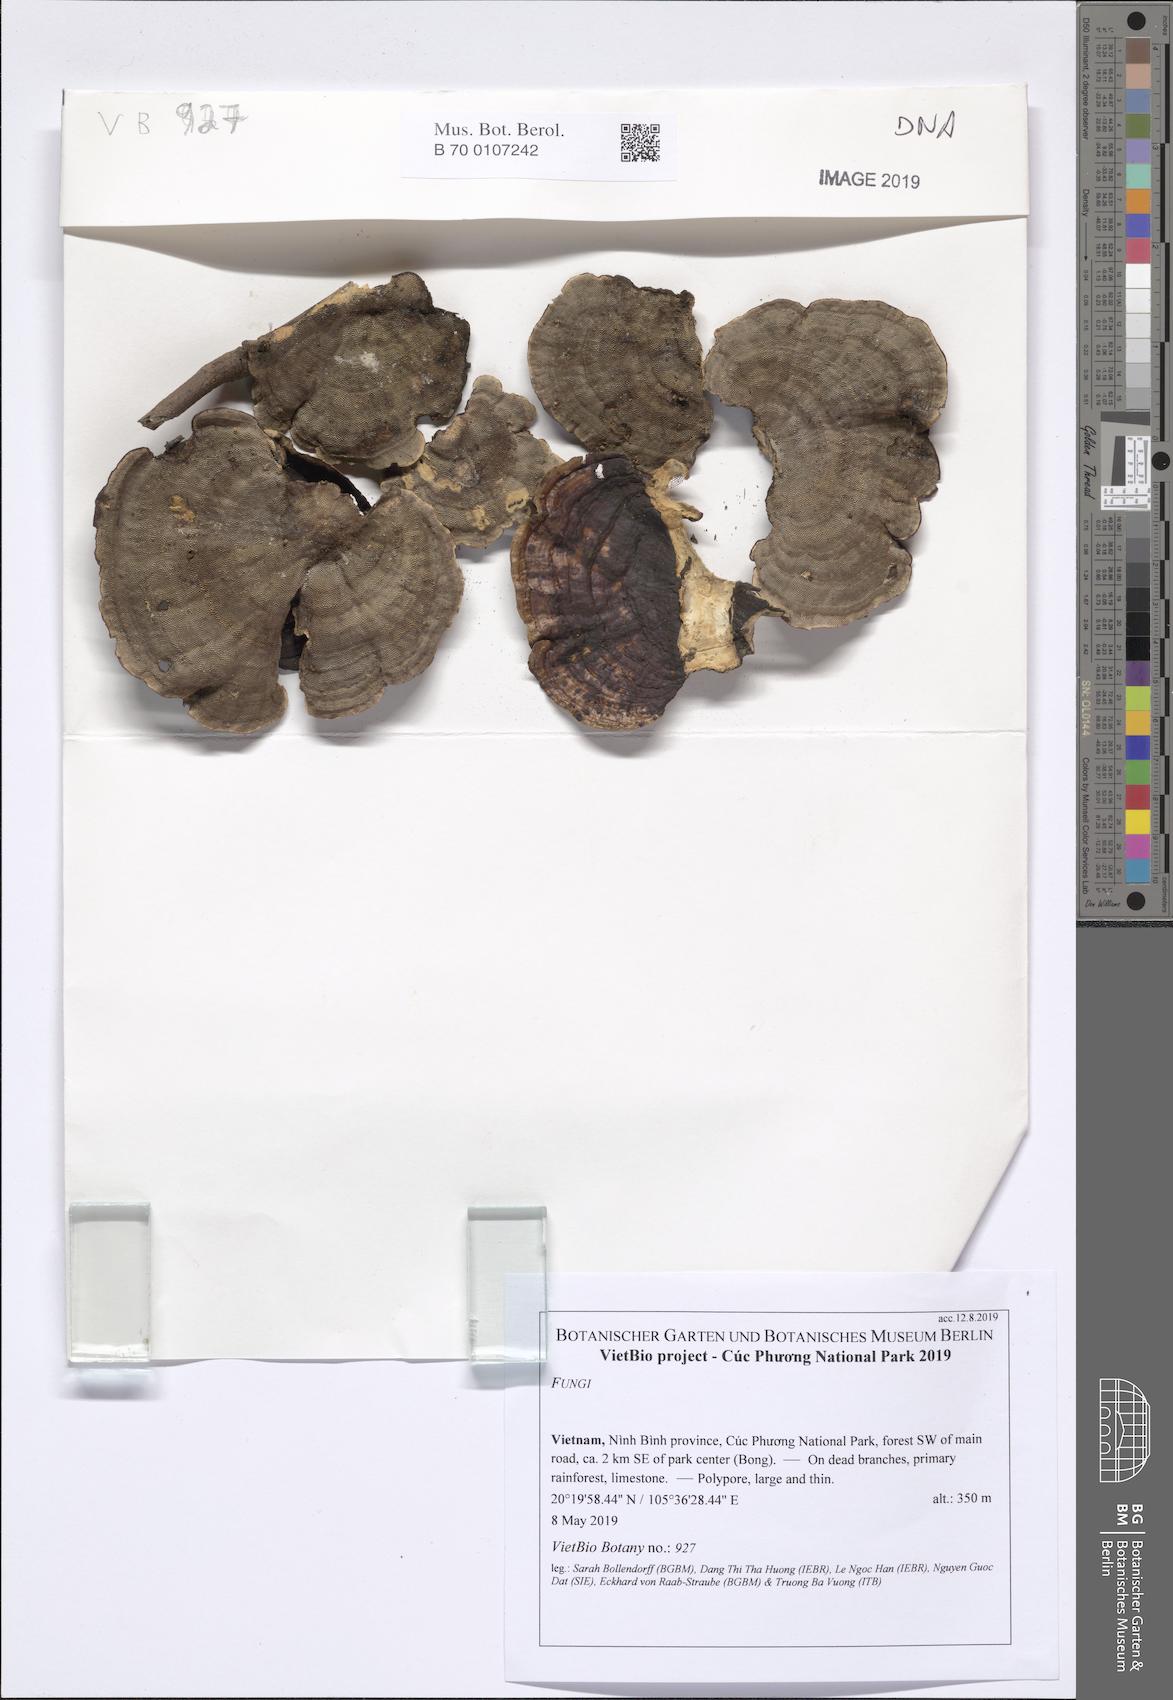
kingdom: Fungi
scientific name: Fungi
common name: Fungi
